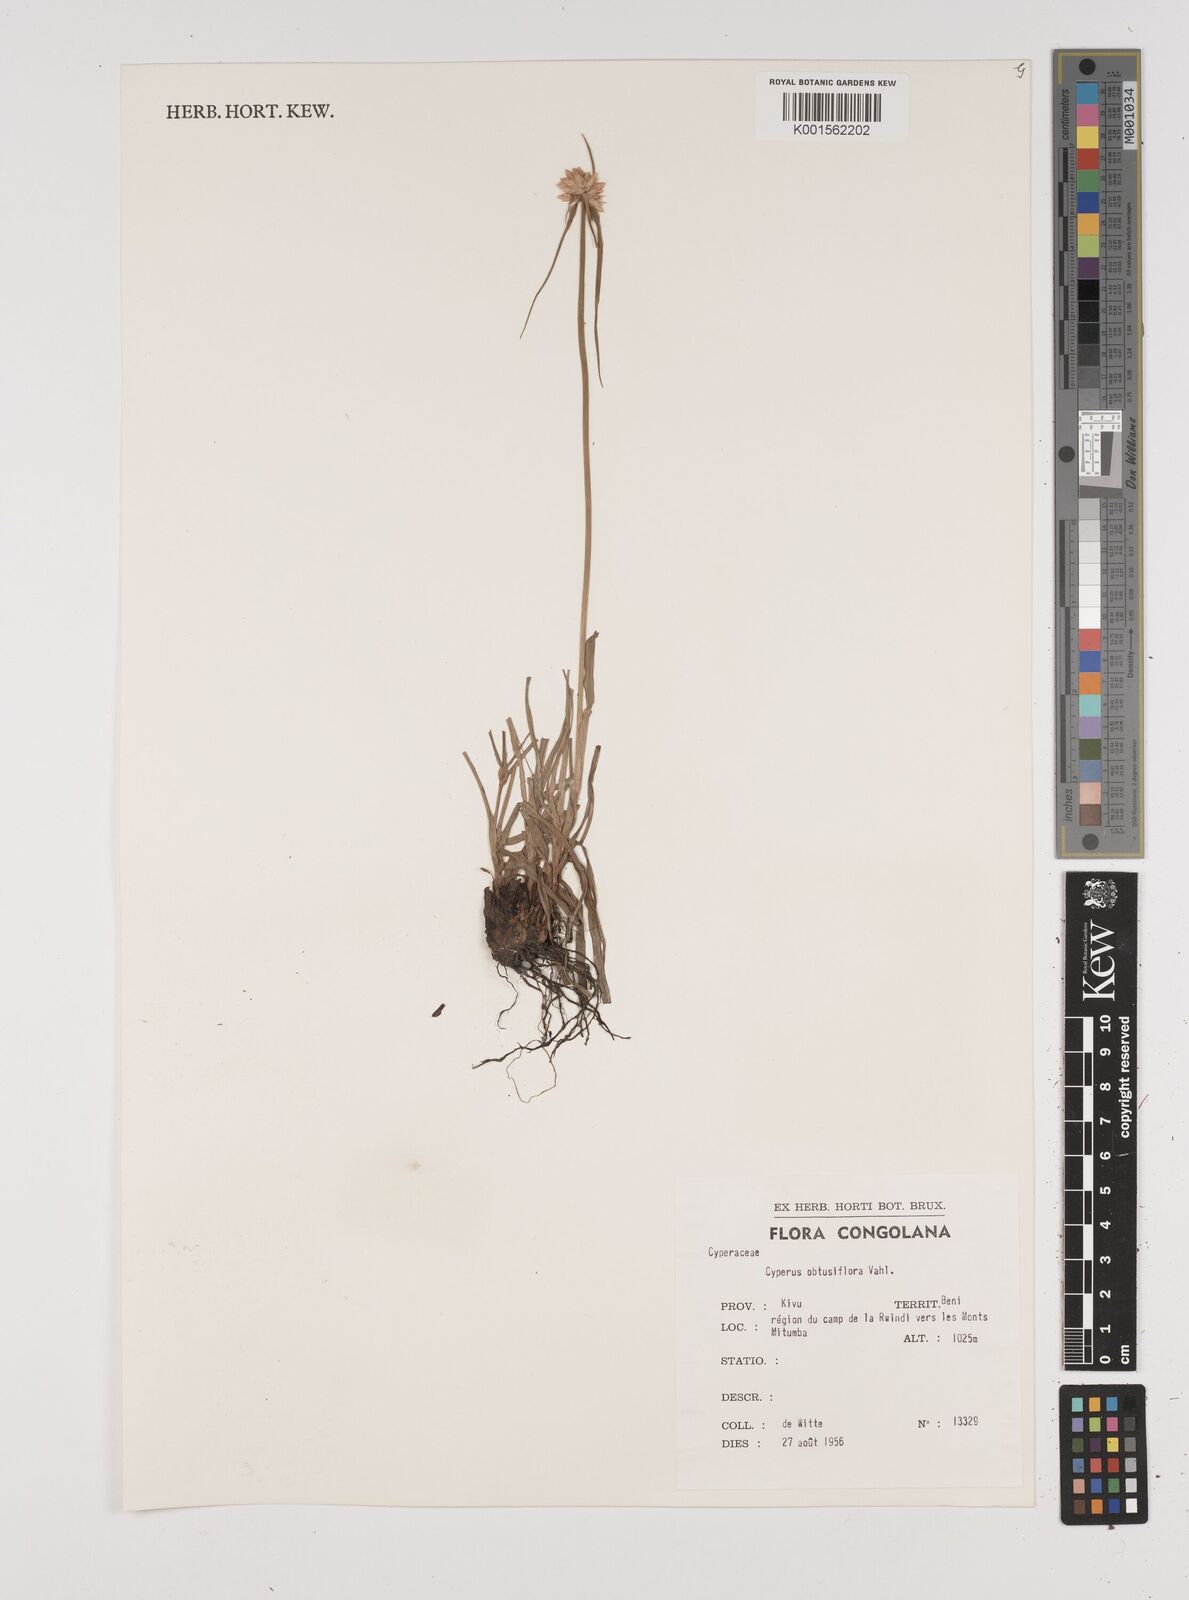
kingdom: Plantae
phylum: Tracheophyta
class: Liliopsida
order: Poales
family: Cyperaceae
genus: Cyperus
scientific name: Cyperus niveus
